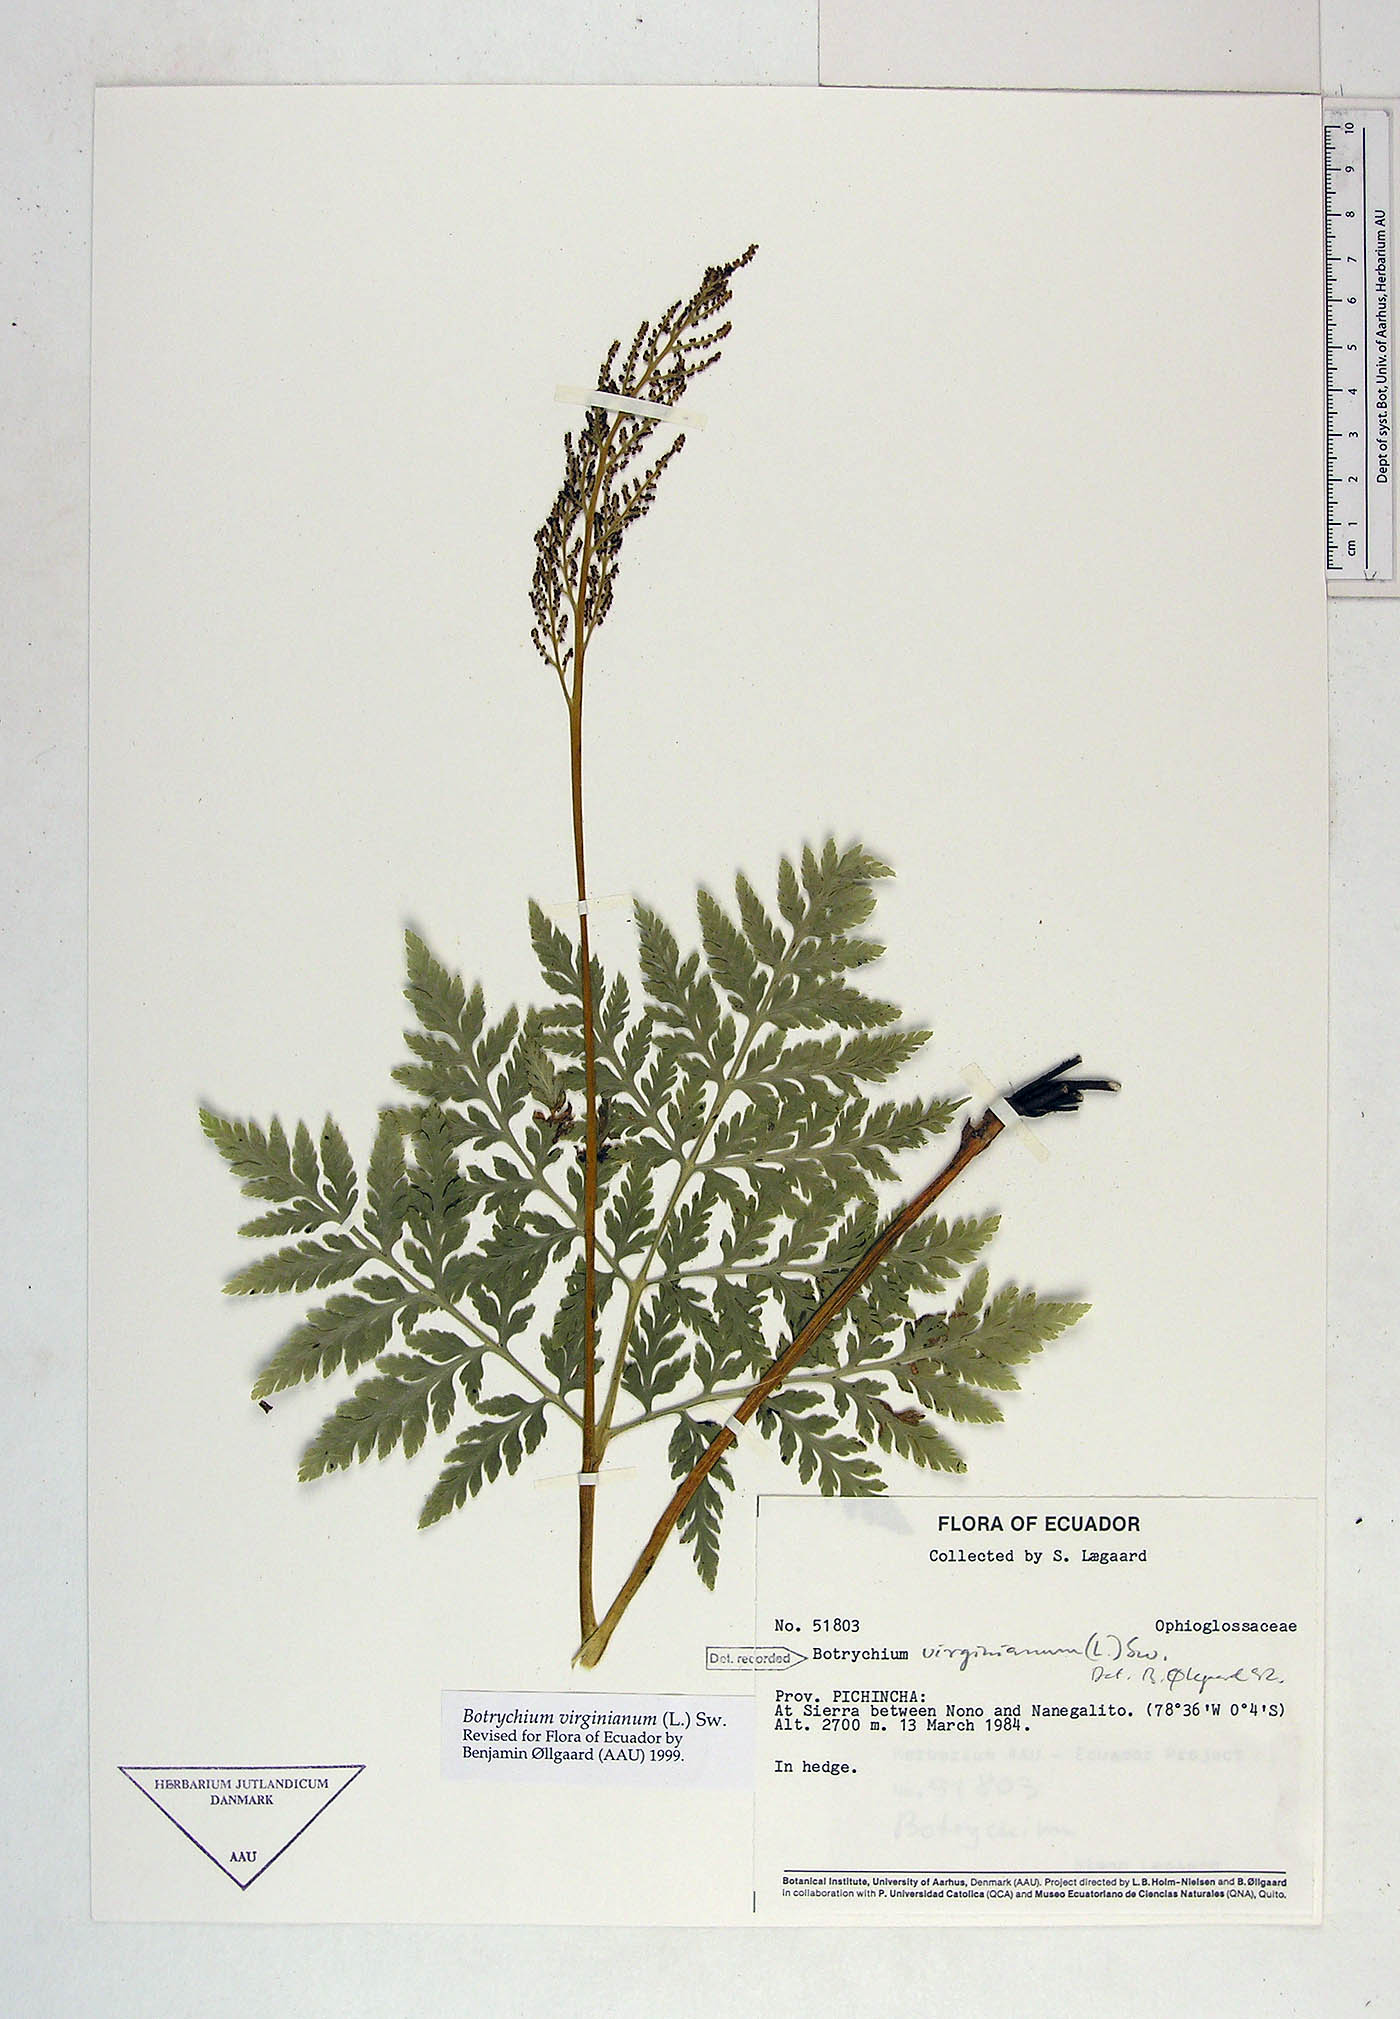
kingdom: Plantae
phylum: Tracheophyta
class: Polypodiopsida
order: Ophioglossales
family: Ophioglossaceae
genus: Botrypus
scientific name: Botrypus virginianus
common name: Common grapefern
